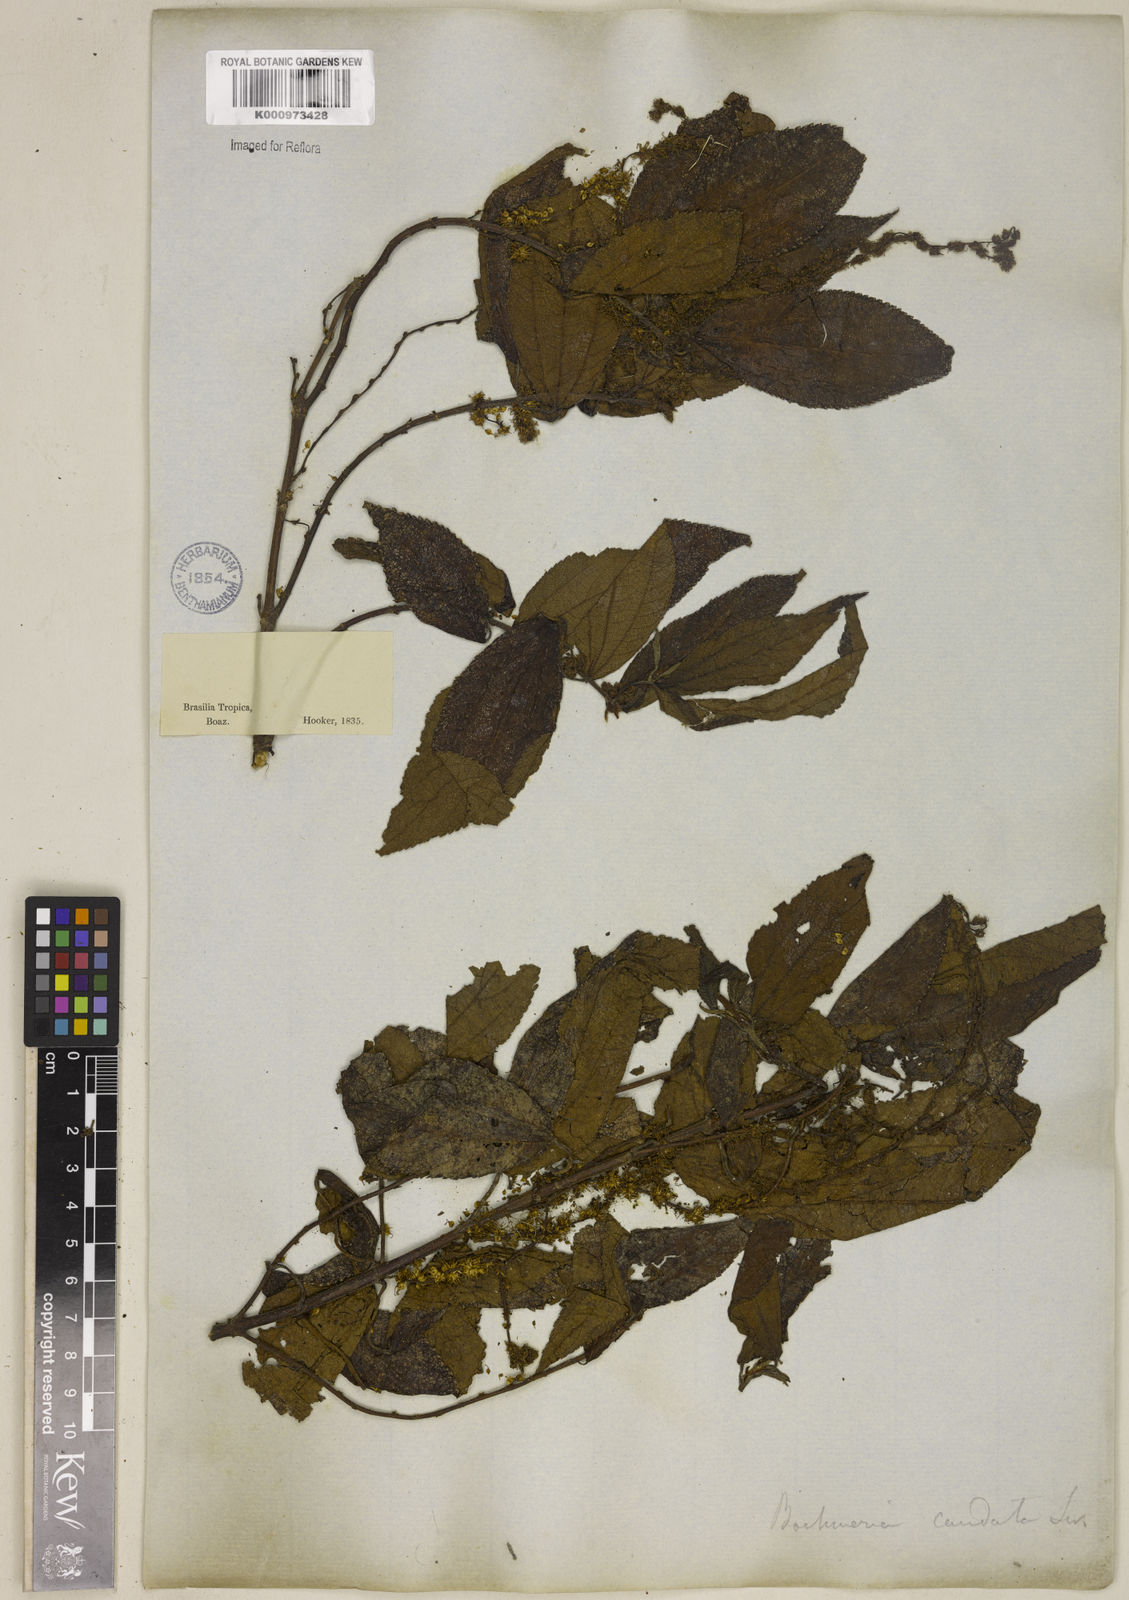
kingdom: Plantae
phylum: Tracheophyta
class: Magnoliopsida
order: Rosales
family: Urticaceae
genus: Boehmeria
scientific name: Boehmeria caudata
